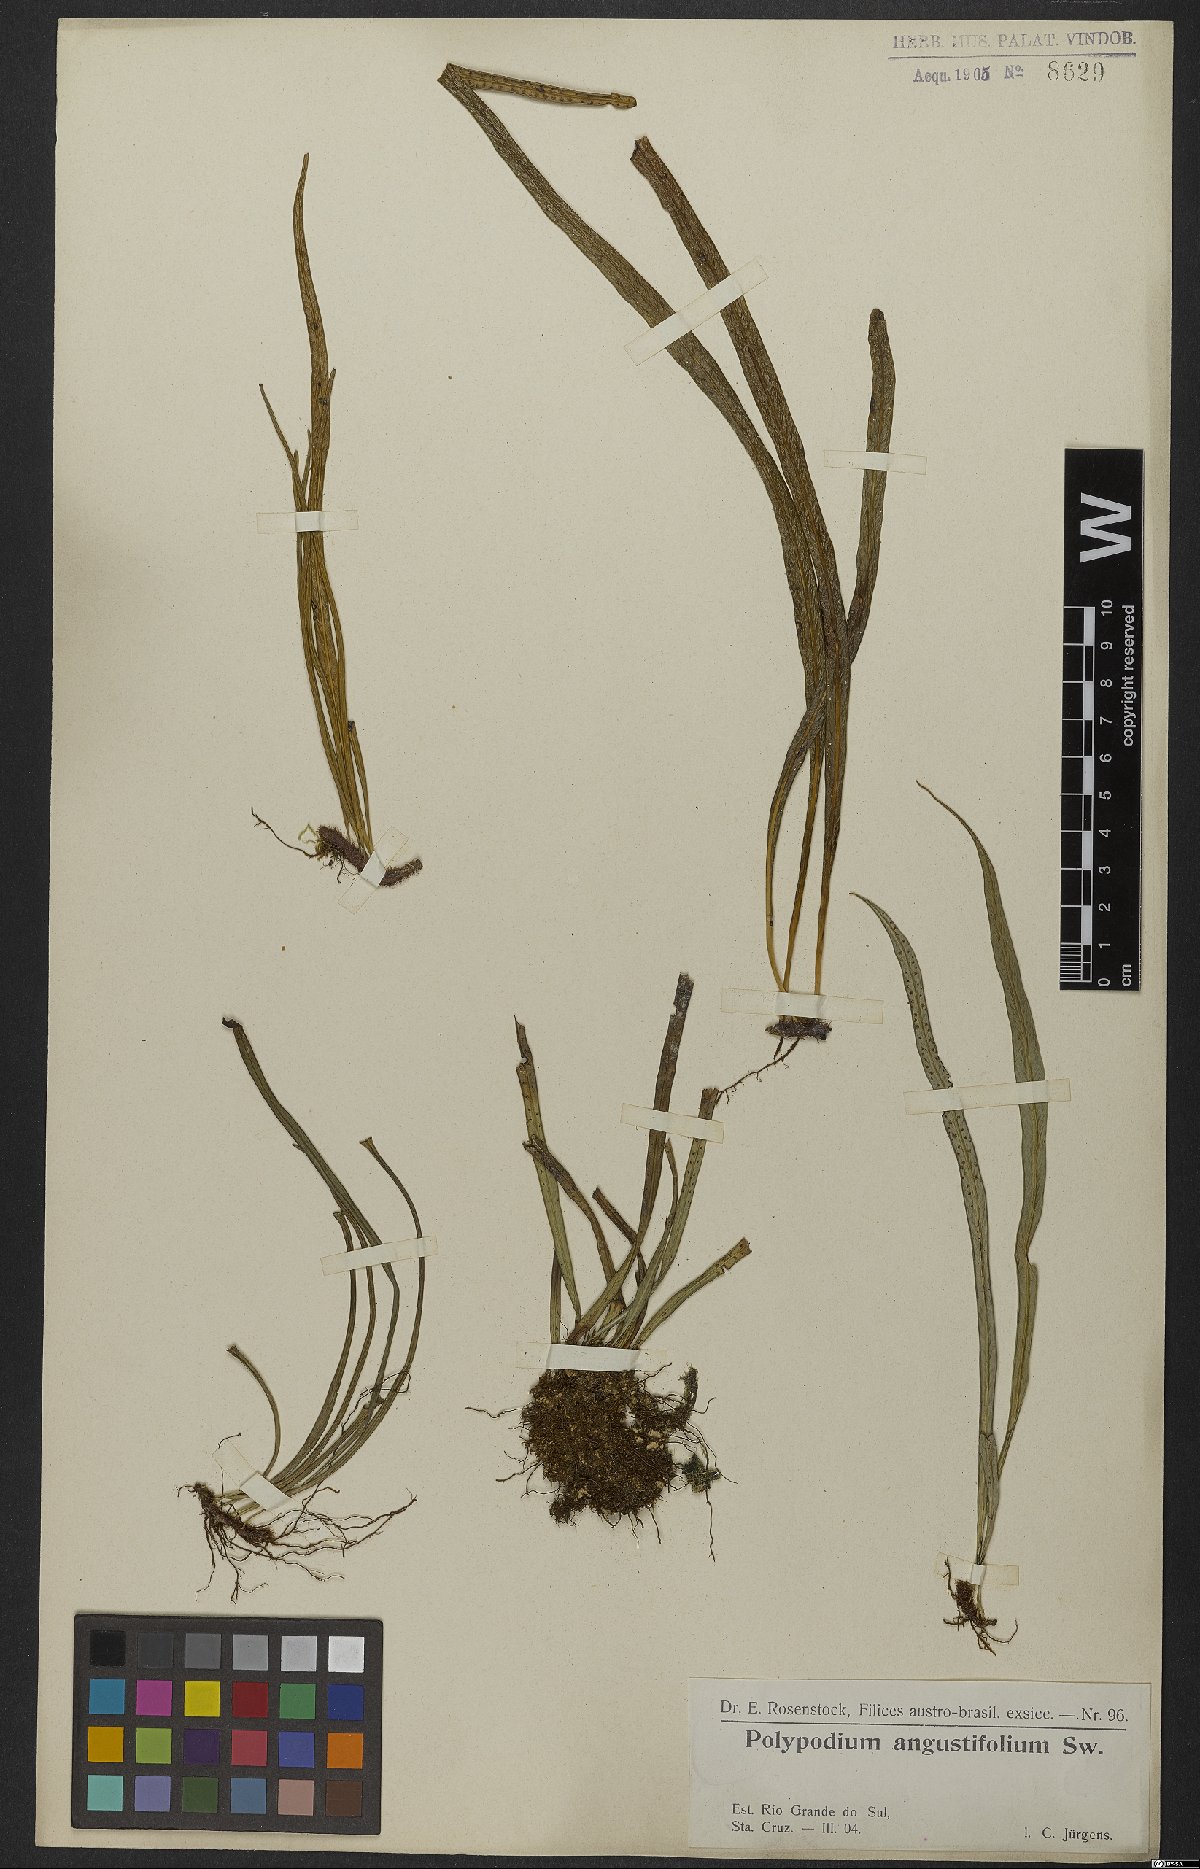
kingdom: Plantae
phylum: Tracheophyta
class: Polypodiopsida
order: Polypodiales
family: Polypodiaceae
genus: Campyloneurum
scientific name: Campyloneurum angustifolium
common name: Narrow-leaf strap fern
